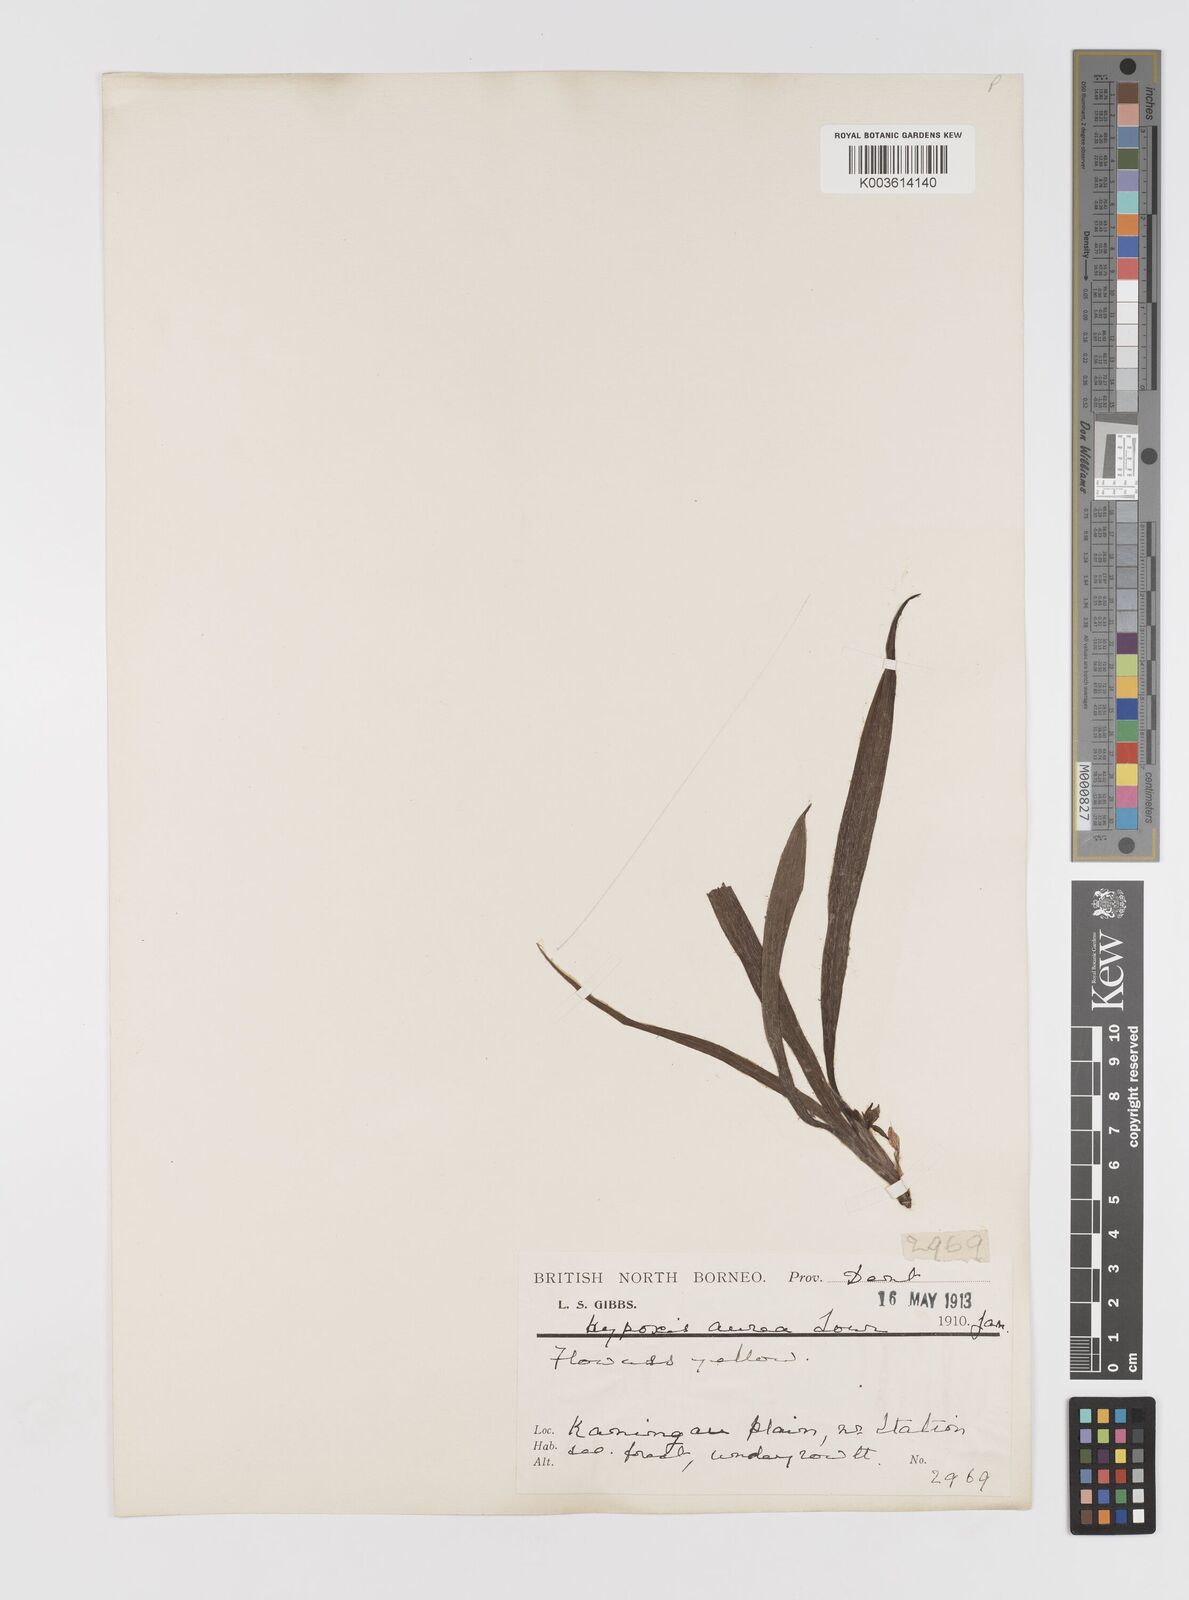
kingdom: Plantae
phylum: Tracheophyta
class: Liliopsida
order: Asparagales
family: Hypoxidaceae
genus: Curculigo
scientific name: Curculigo orchioides
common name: Golden eye-grass
